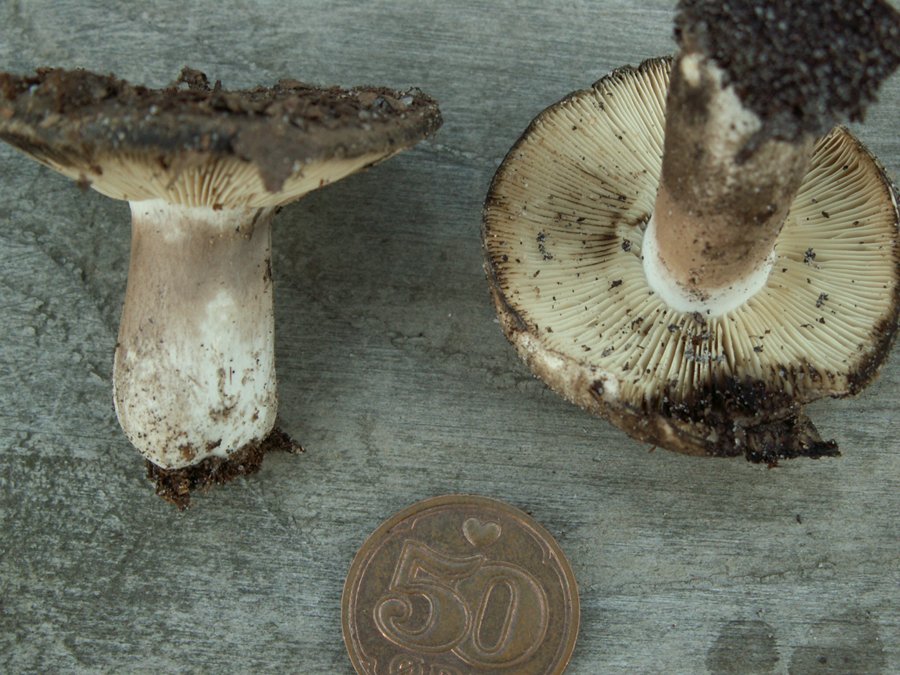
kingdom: Fungi
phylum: Basidiomycota
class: Agaricomycetes
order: Russulales
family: Russulaceae
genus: Russula
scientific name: Russula anthracina
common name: kul-skørhat
